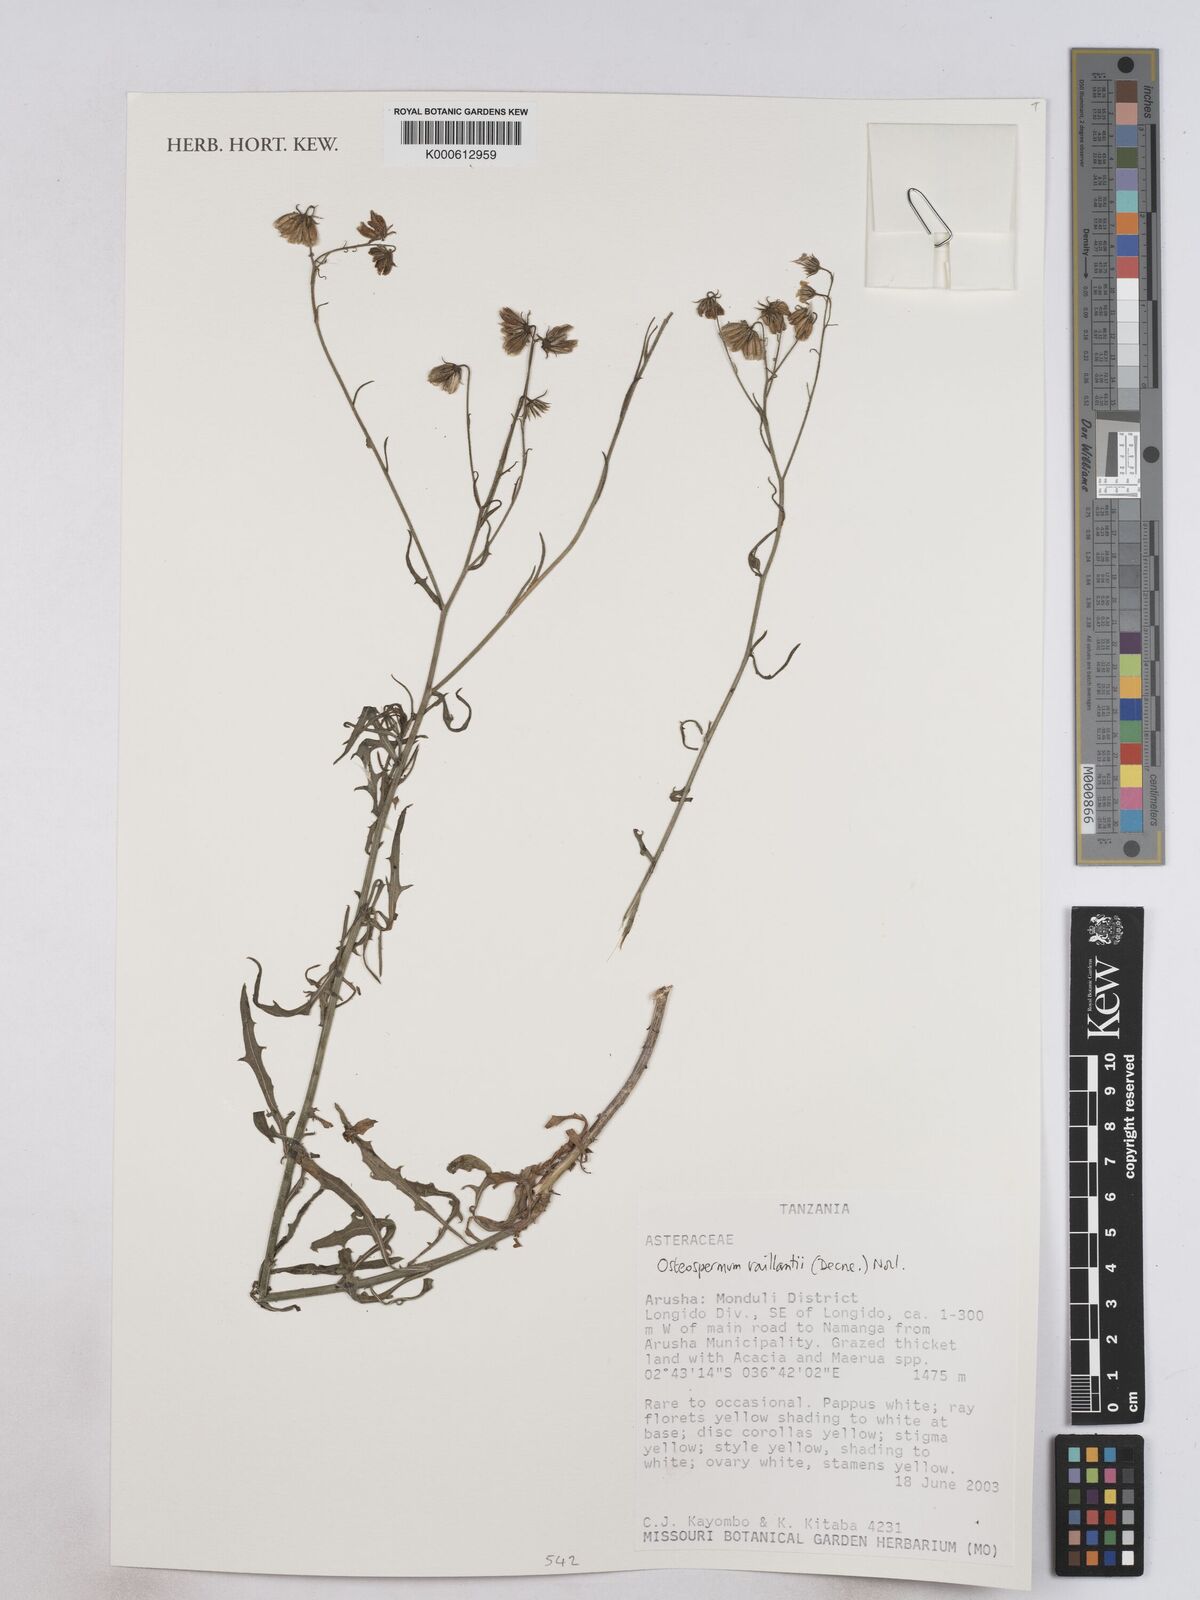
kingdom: Plantae
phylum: Tracheophyta
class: Magnoliopsida
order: Asterales
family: Asteraceae
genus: Osteospermum
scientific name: Osteospermum vaillantii
